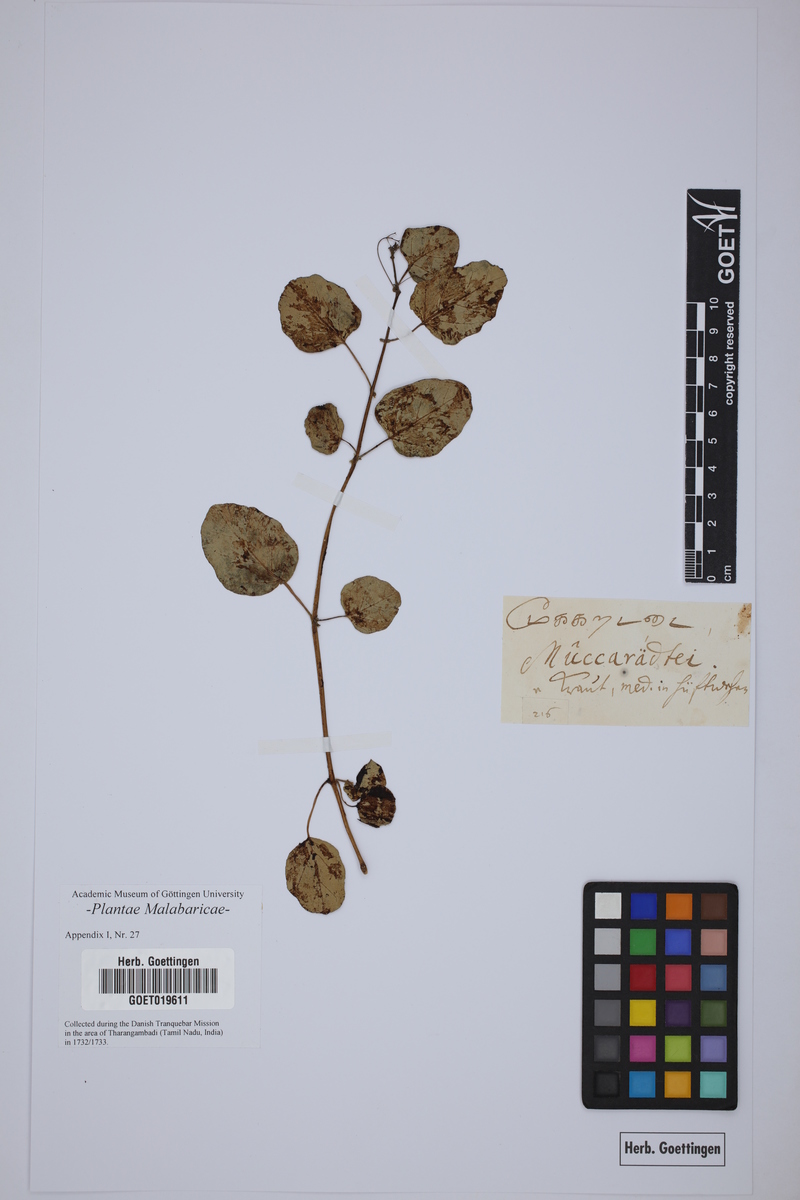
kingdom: Plantae
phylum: Tracheophyta
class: Magnoliopsida
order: Caryophyllales
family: Nyctaginaceae
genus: Boerhavia
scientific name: Boerhavia diffusa
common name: Red spiderling
